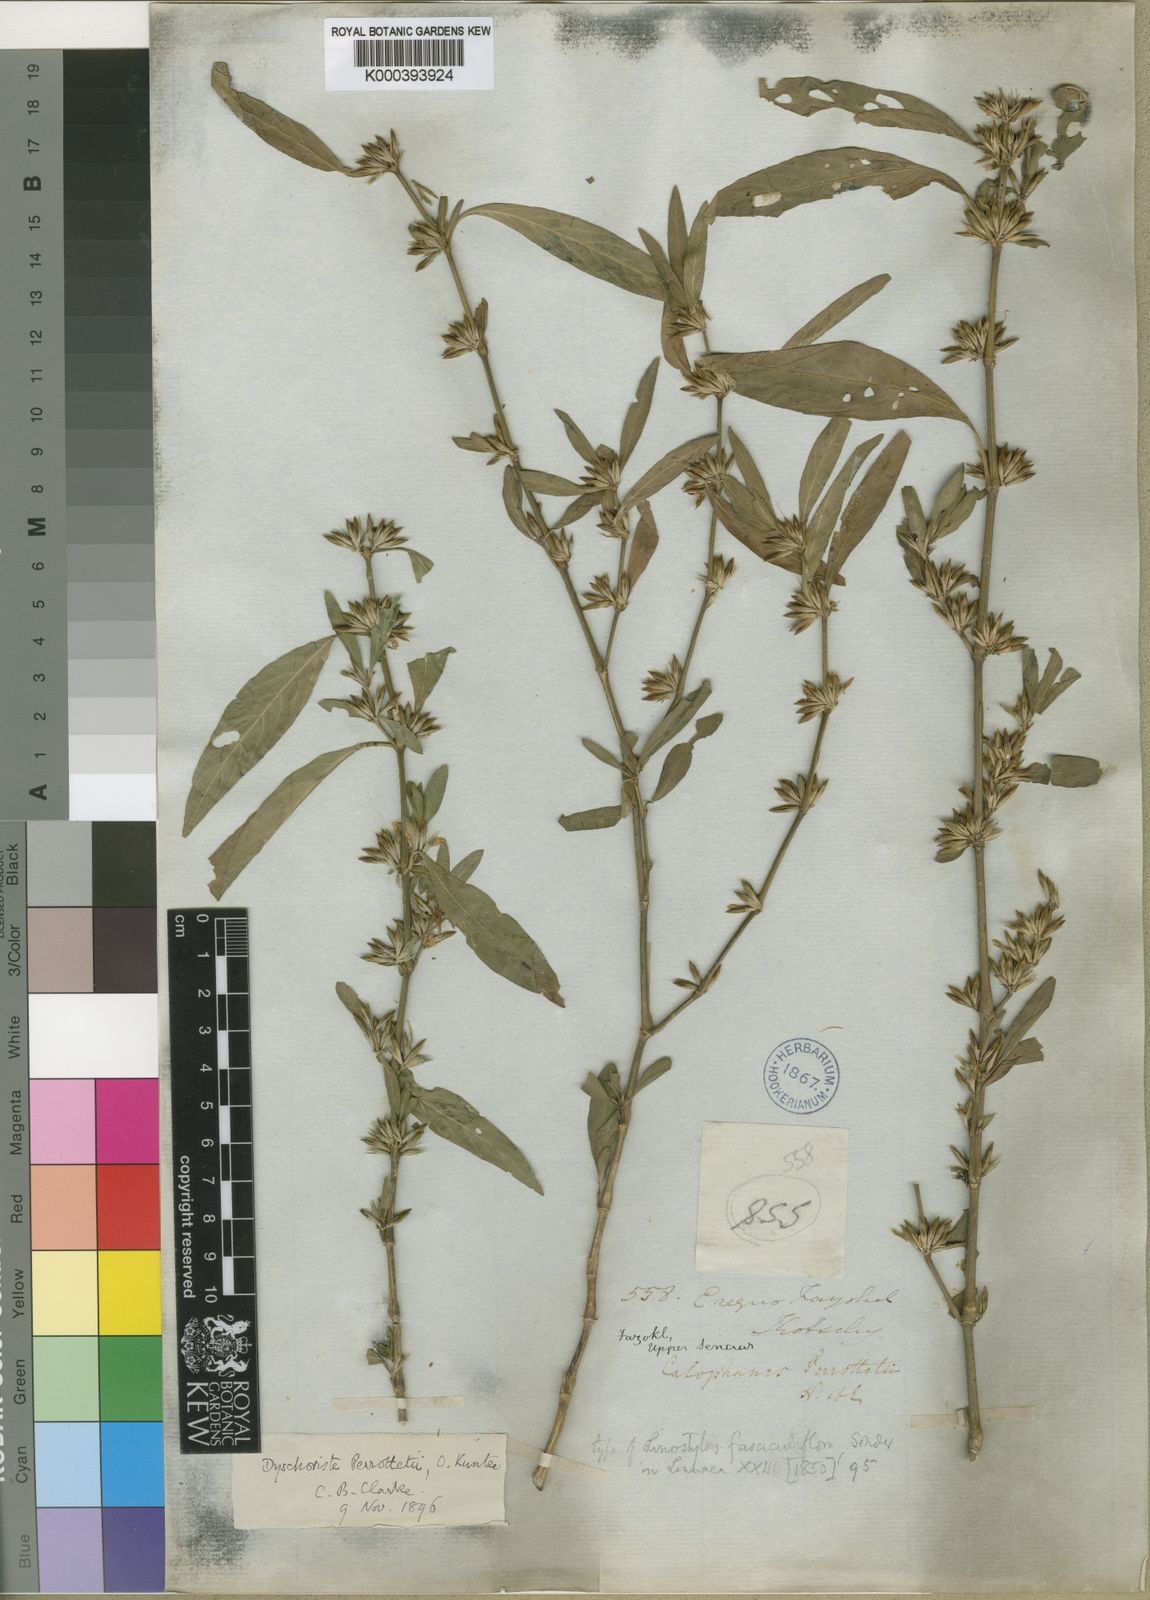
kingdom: Plantae
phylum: Tracheophyta
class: Magnoliopsida
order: Lamiales
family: Acanthaceae
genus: Dyschoriste
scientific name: Dyschoriste nagchana
